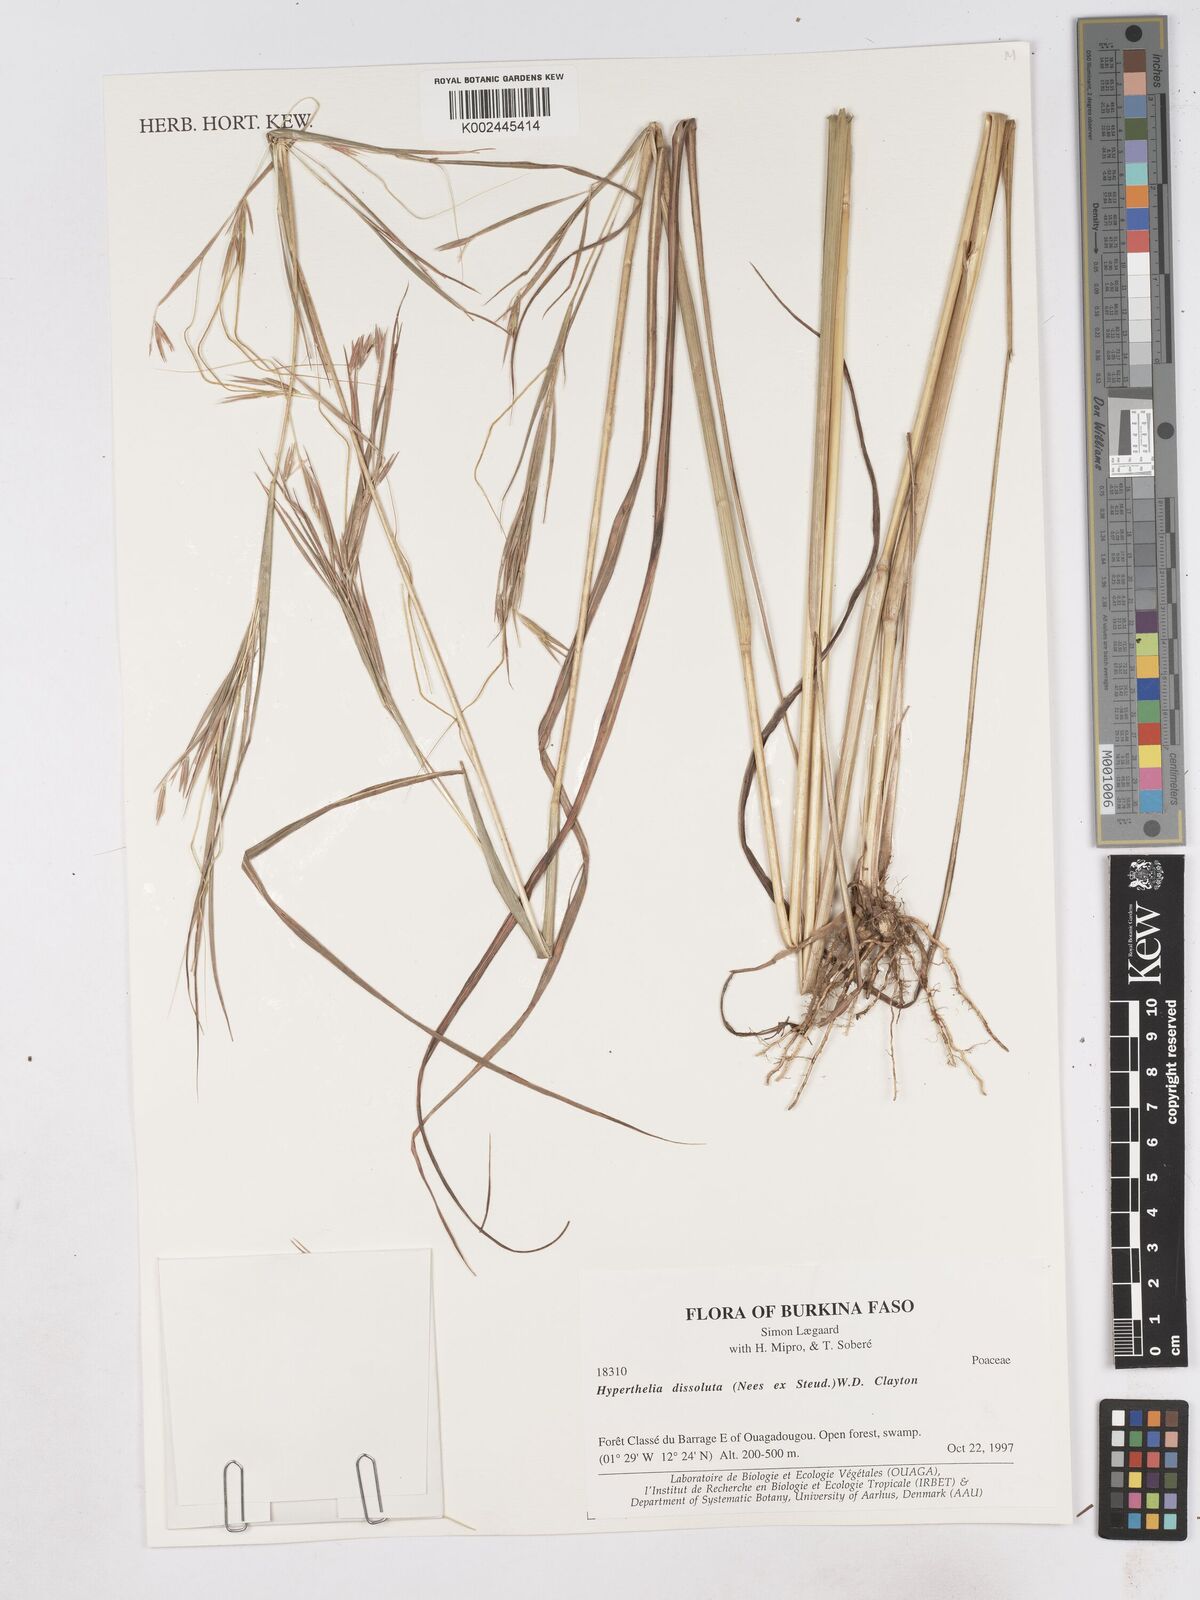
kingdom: Plantae
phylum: Tracheophyta
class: Liliopsida
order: Poales
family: Poaceae
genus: Hyperthelia
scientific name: Hyperthelia dissoluta
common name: Yellow thatching grass
